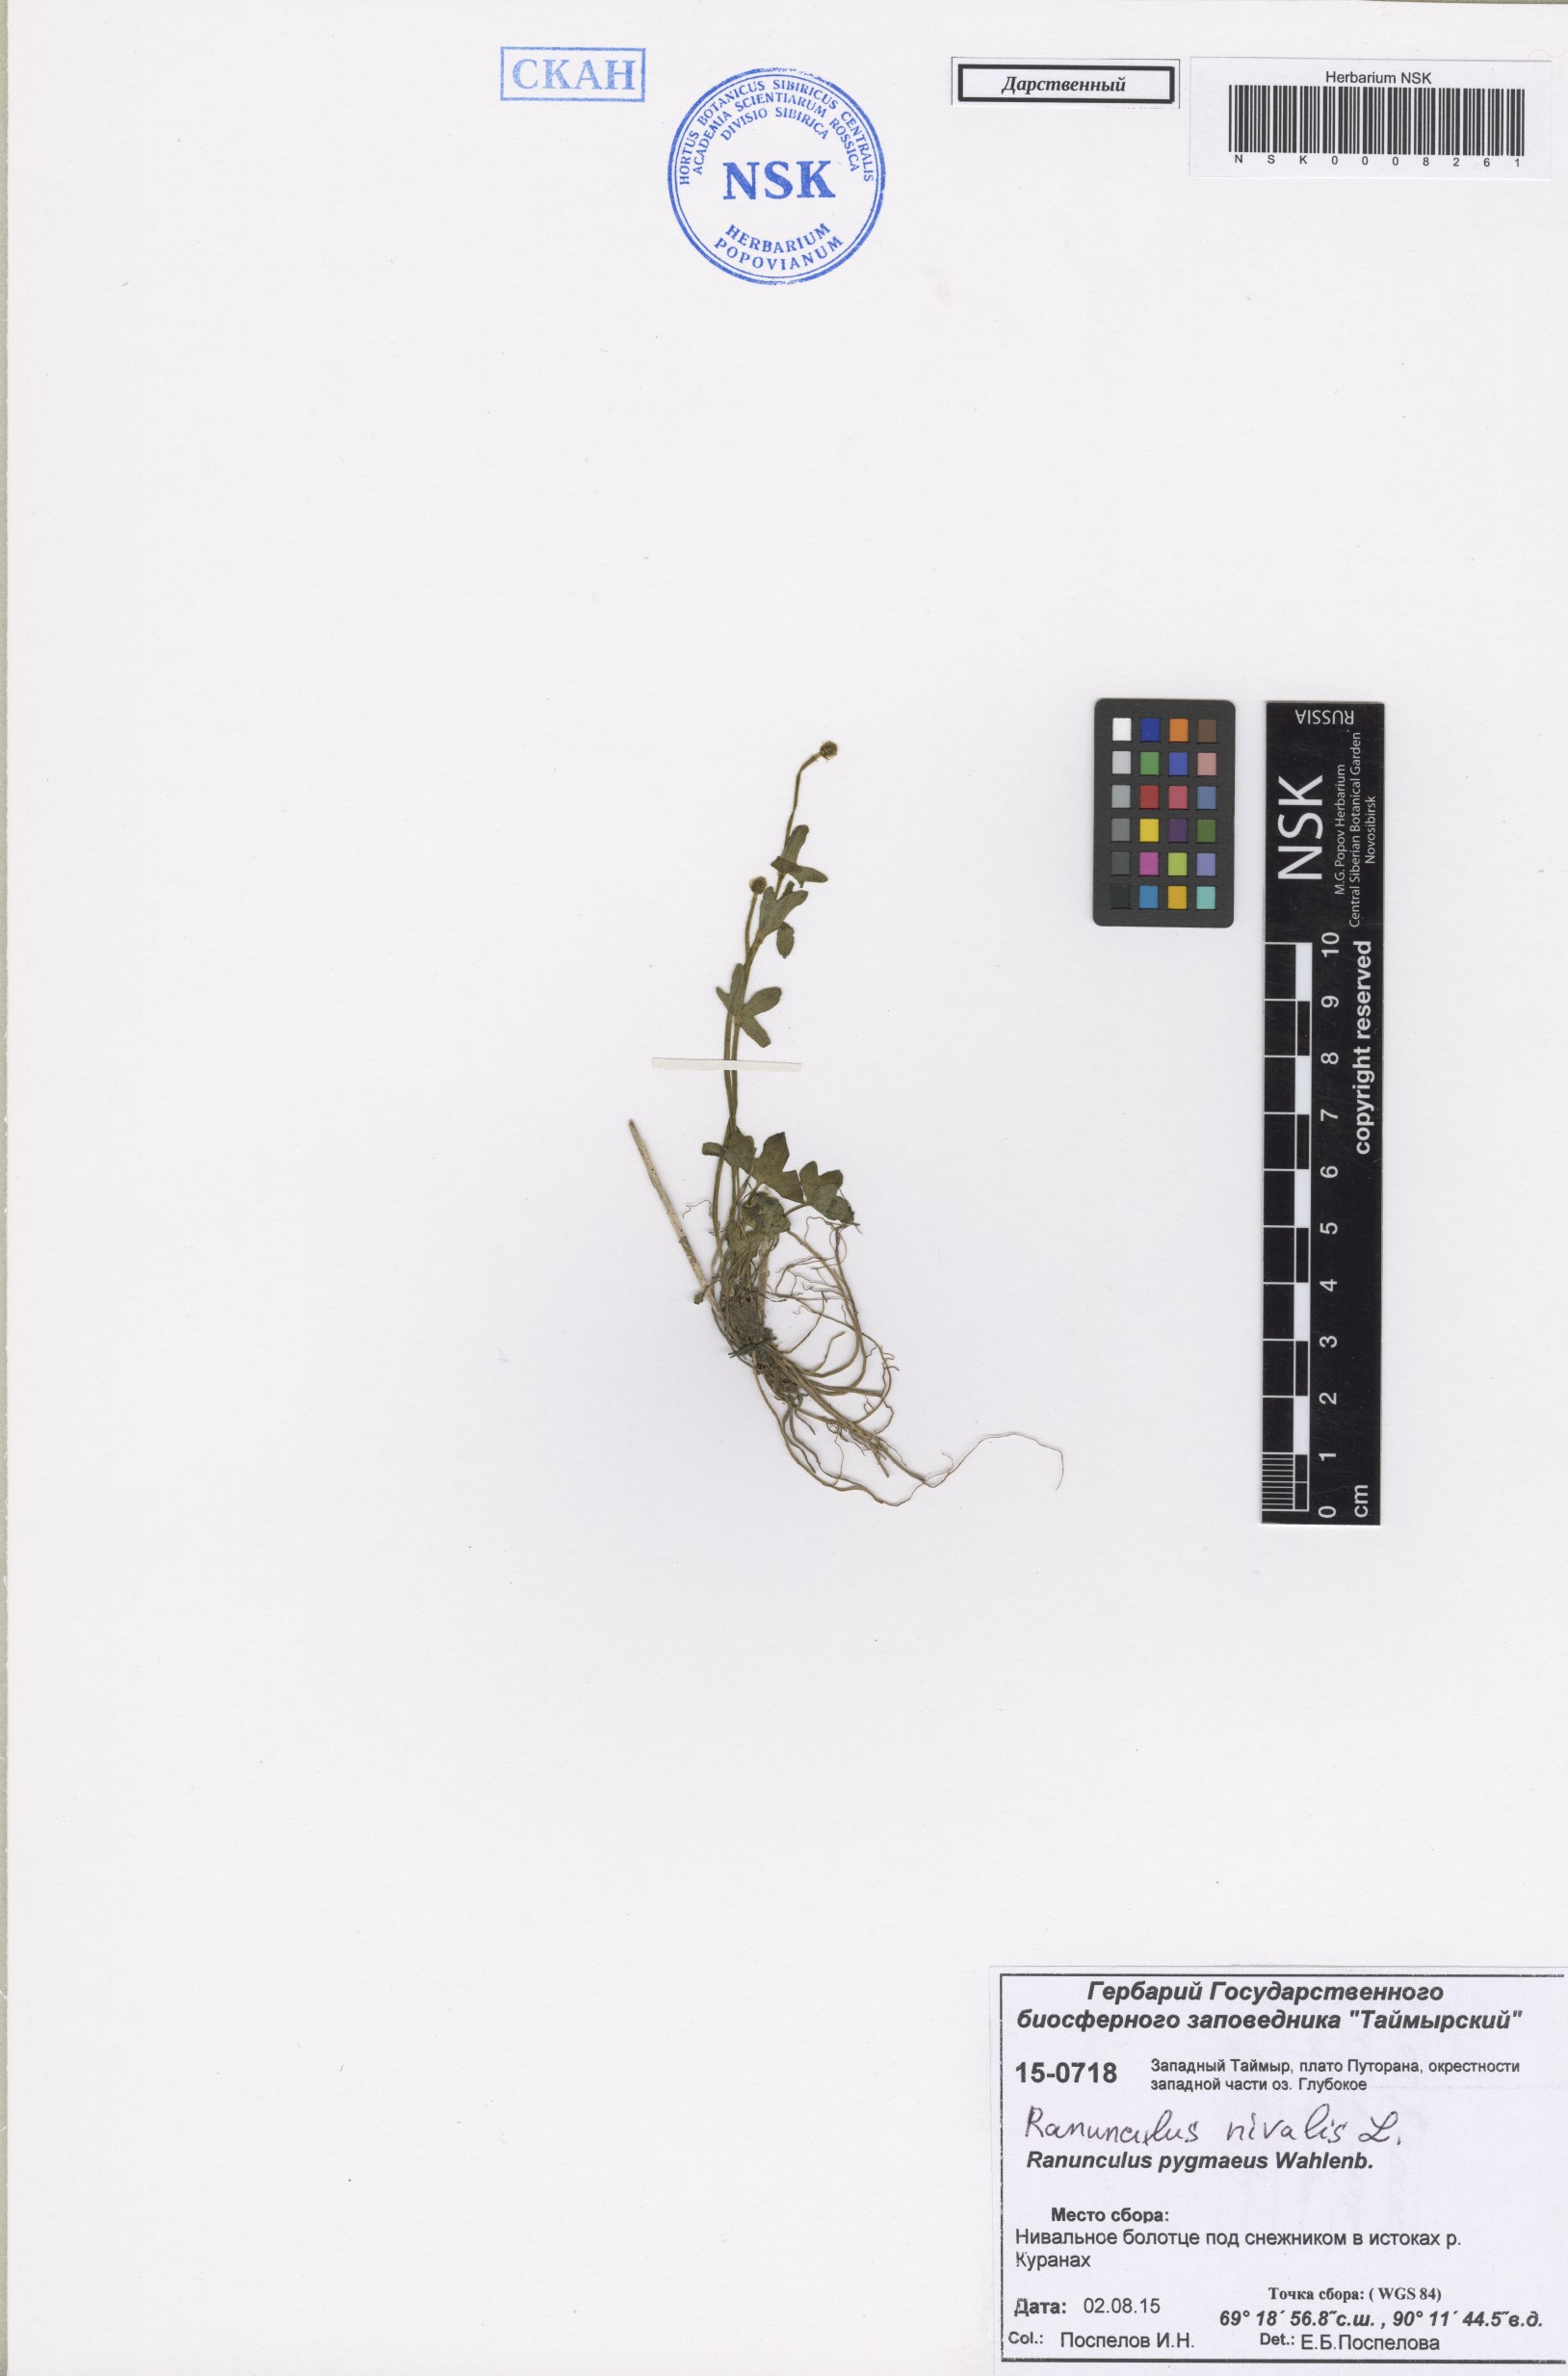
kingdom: Plantae
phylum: Tracheophyta
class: Magnoliopsida
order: Ranunculales
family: Ranunculaceae
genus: Ranunculus
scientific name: Ranunculus nivalis
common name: Snow buttercup
